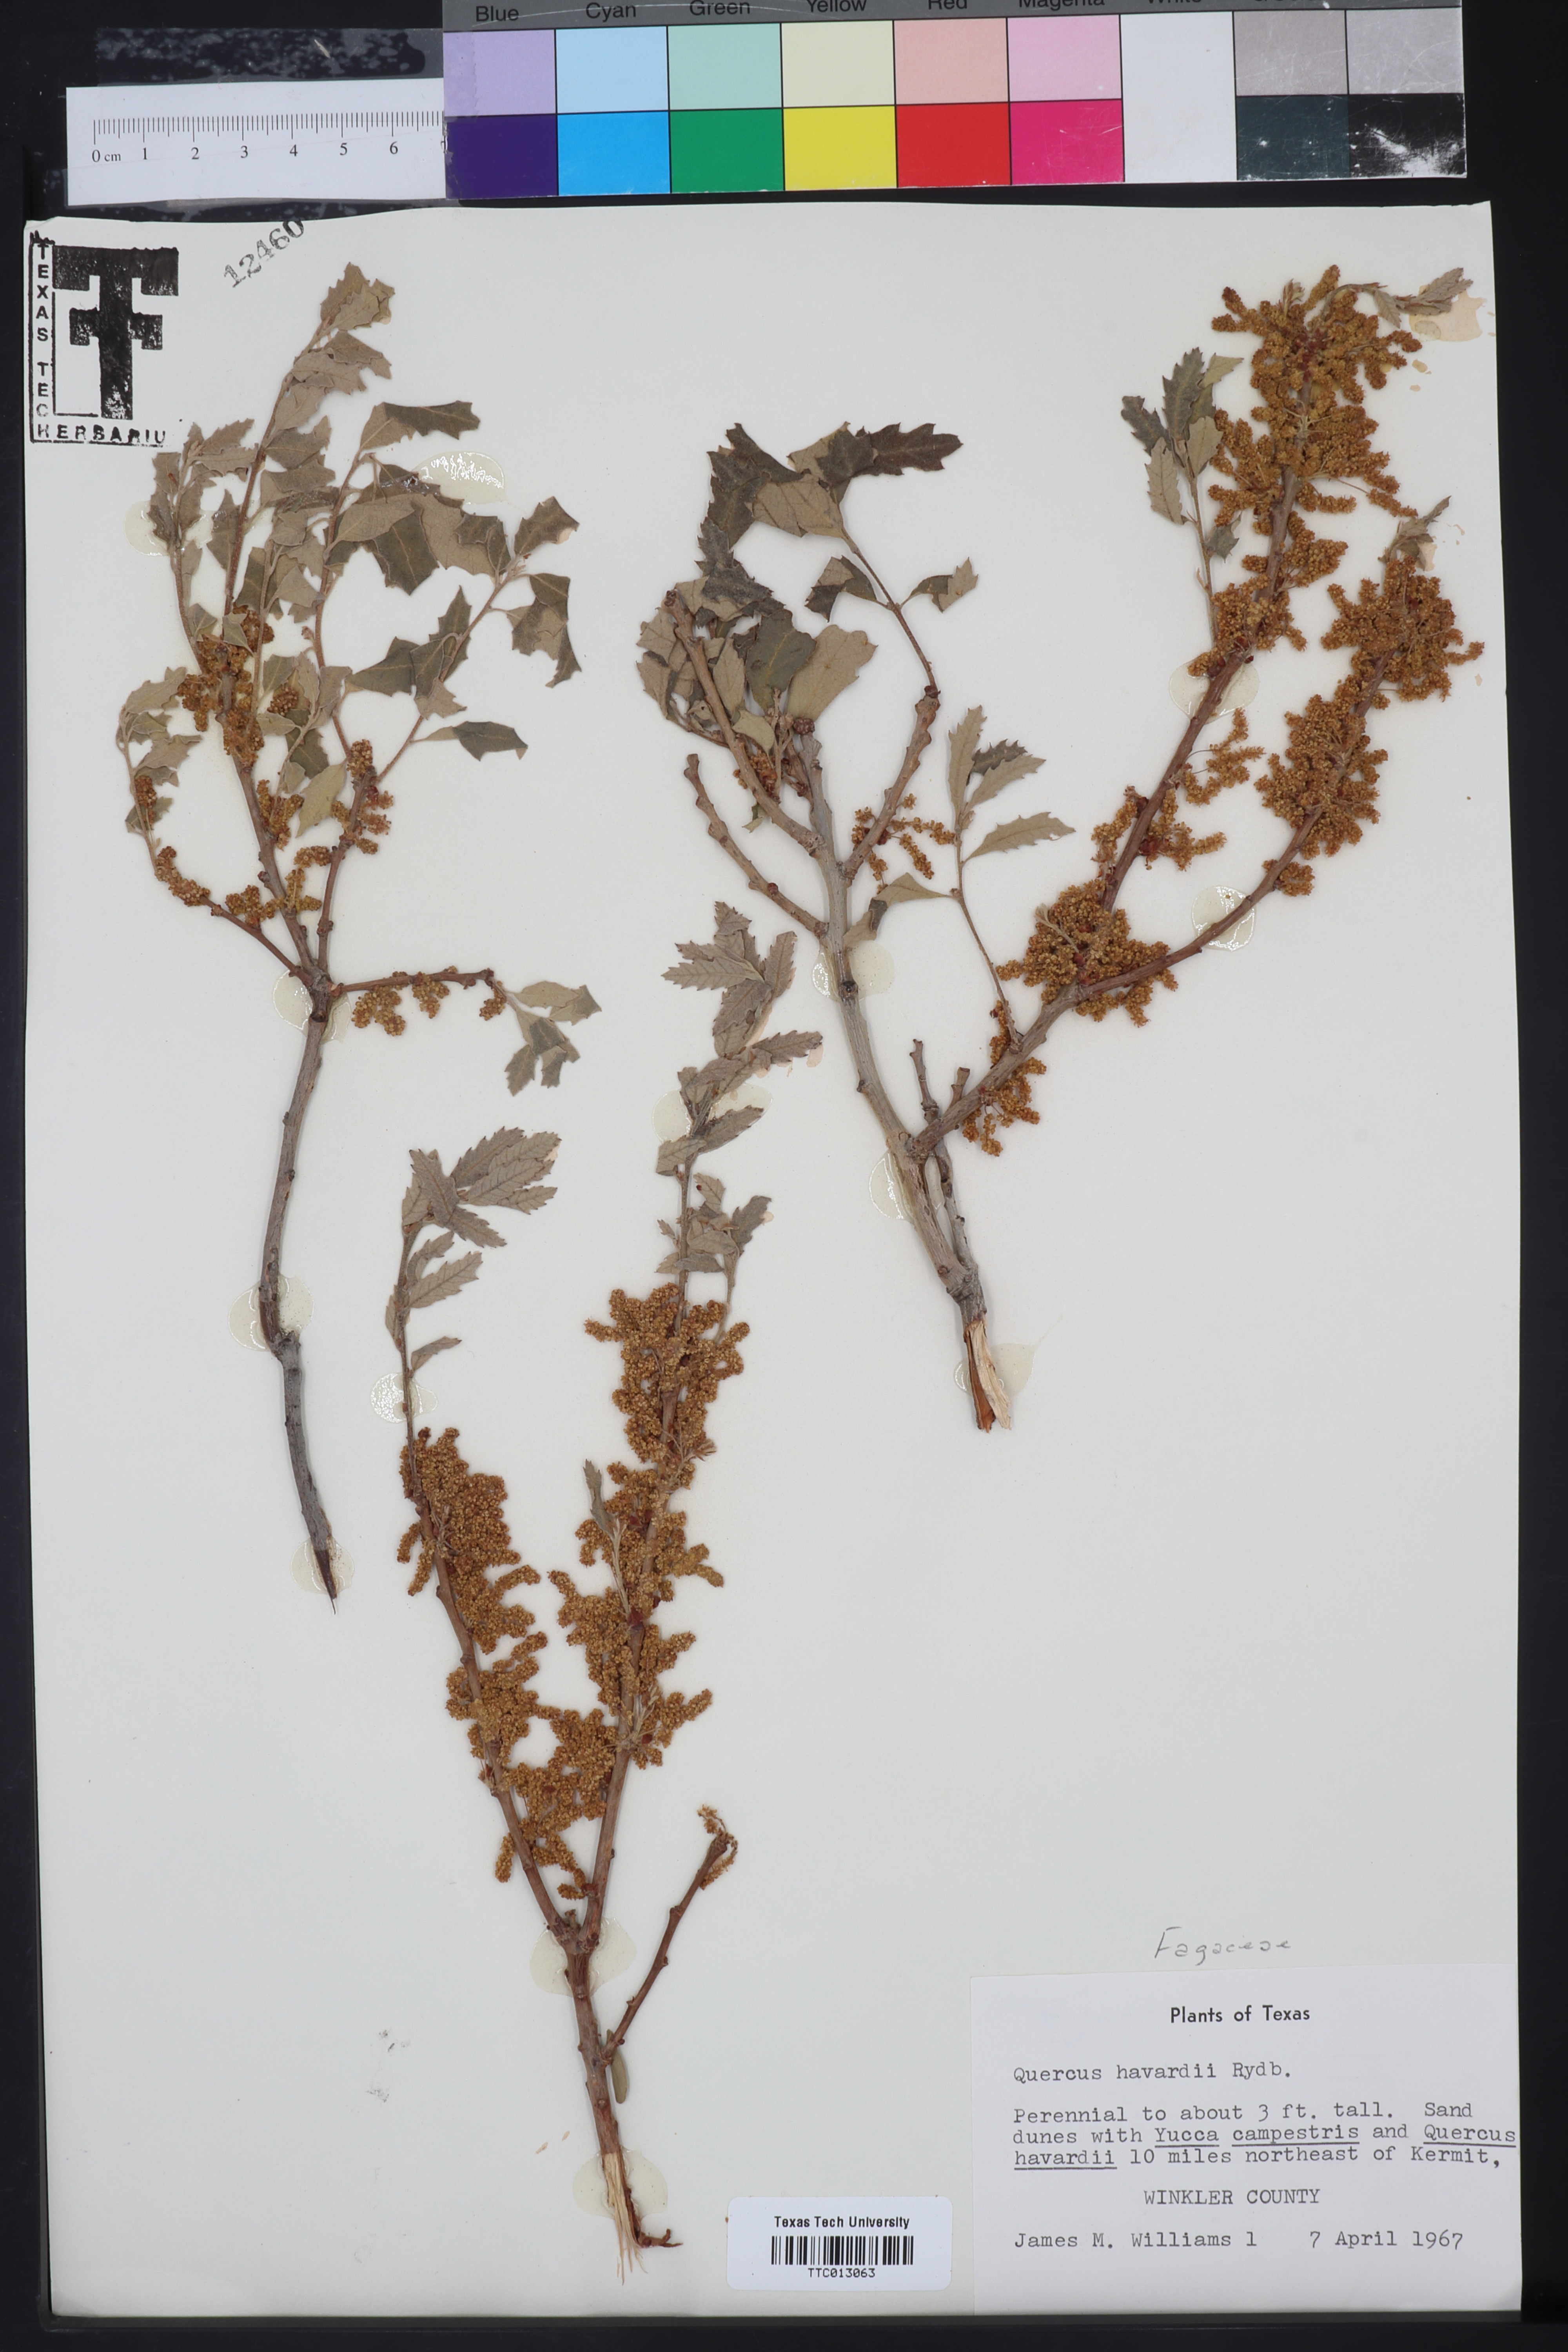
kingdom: Plantae
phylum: Tracheophyta
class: Magnoliopsida
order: Fagales
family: Fagaceae
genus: Quercus
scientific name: Quercus havardii
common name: Shinnery oak
